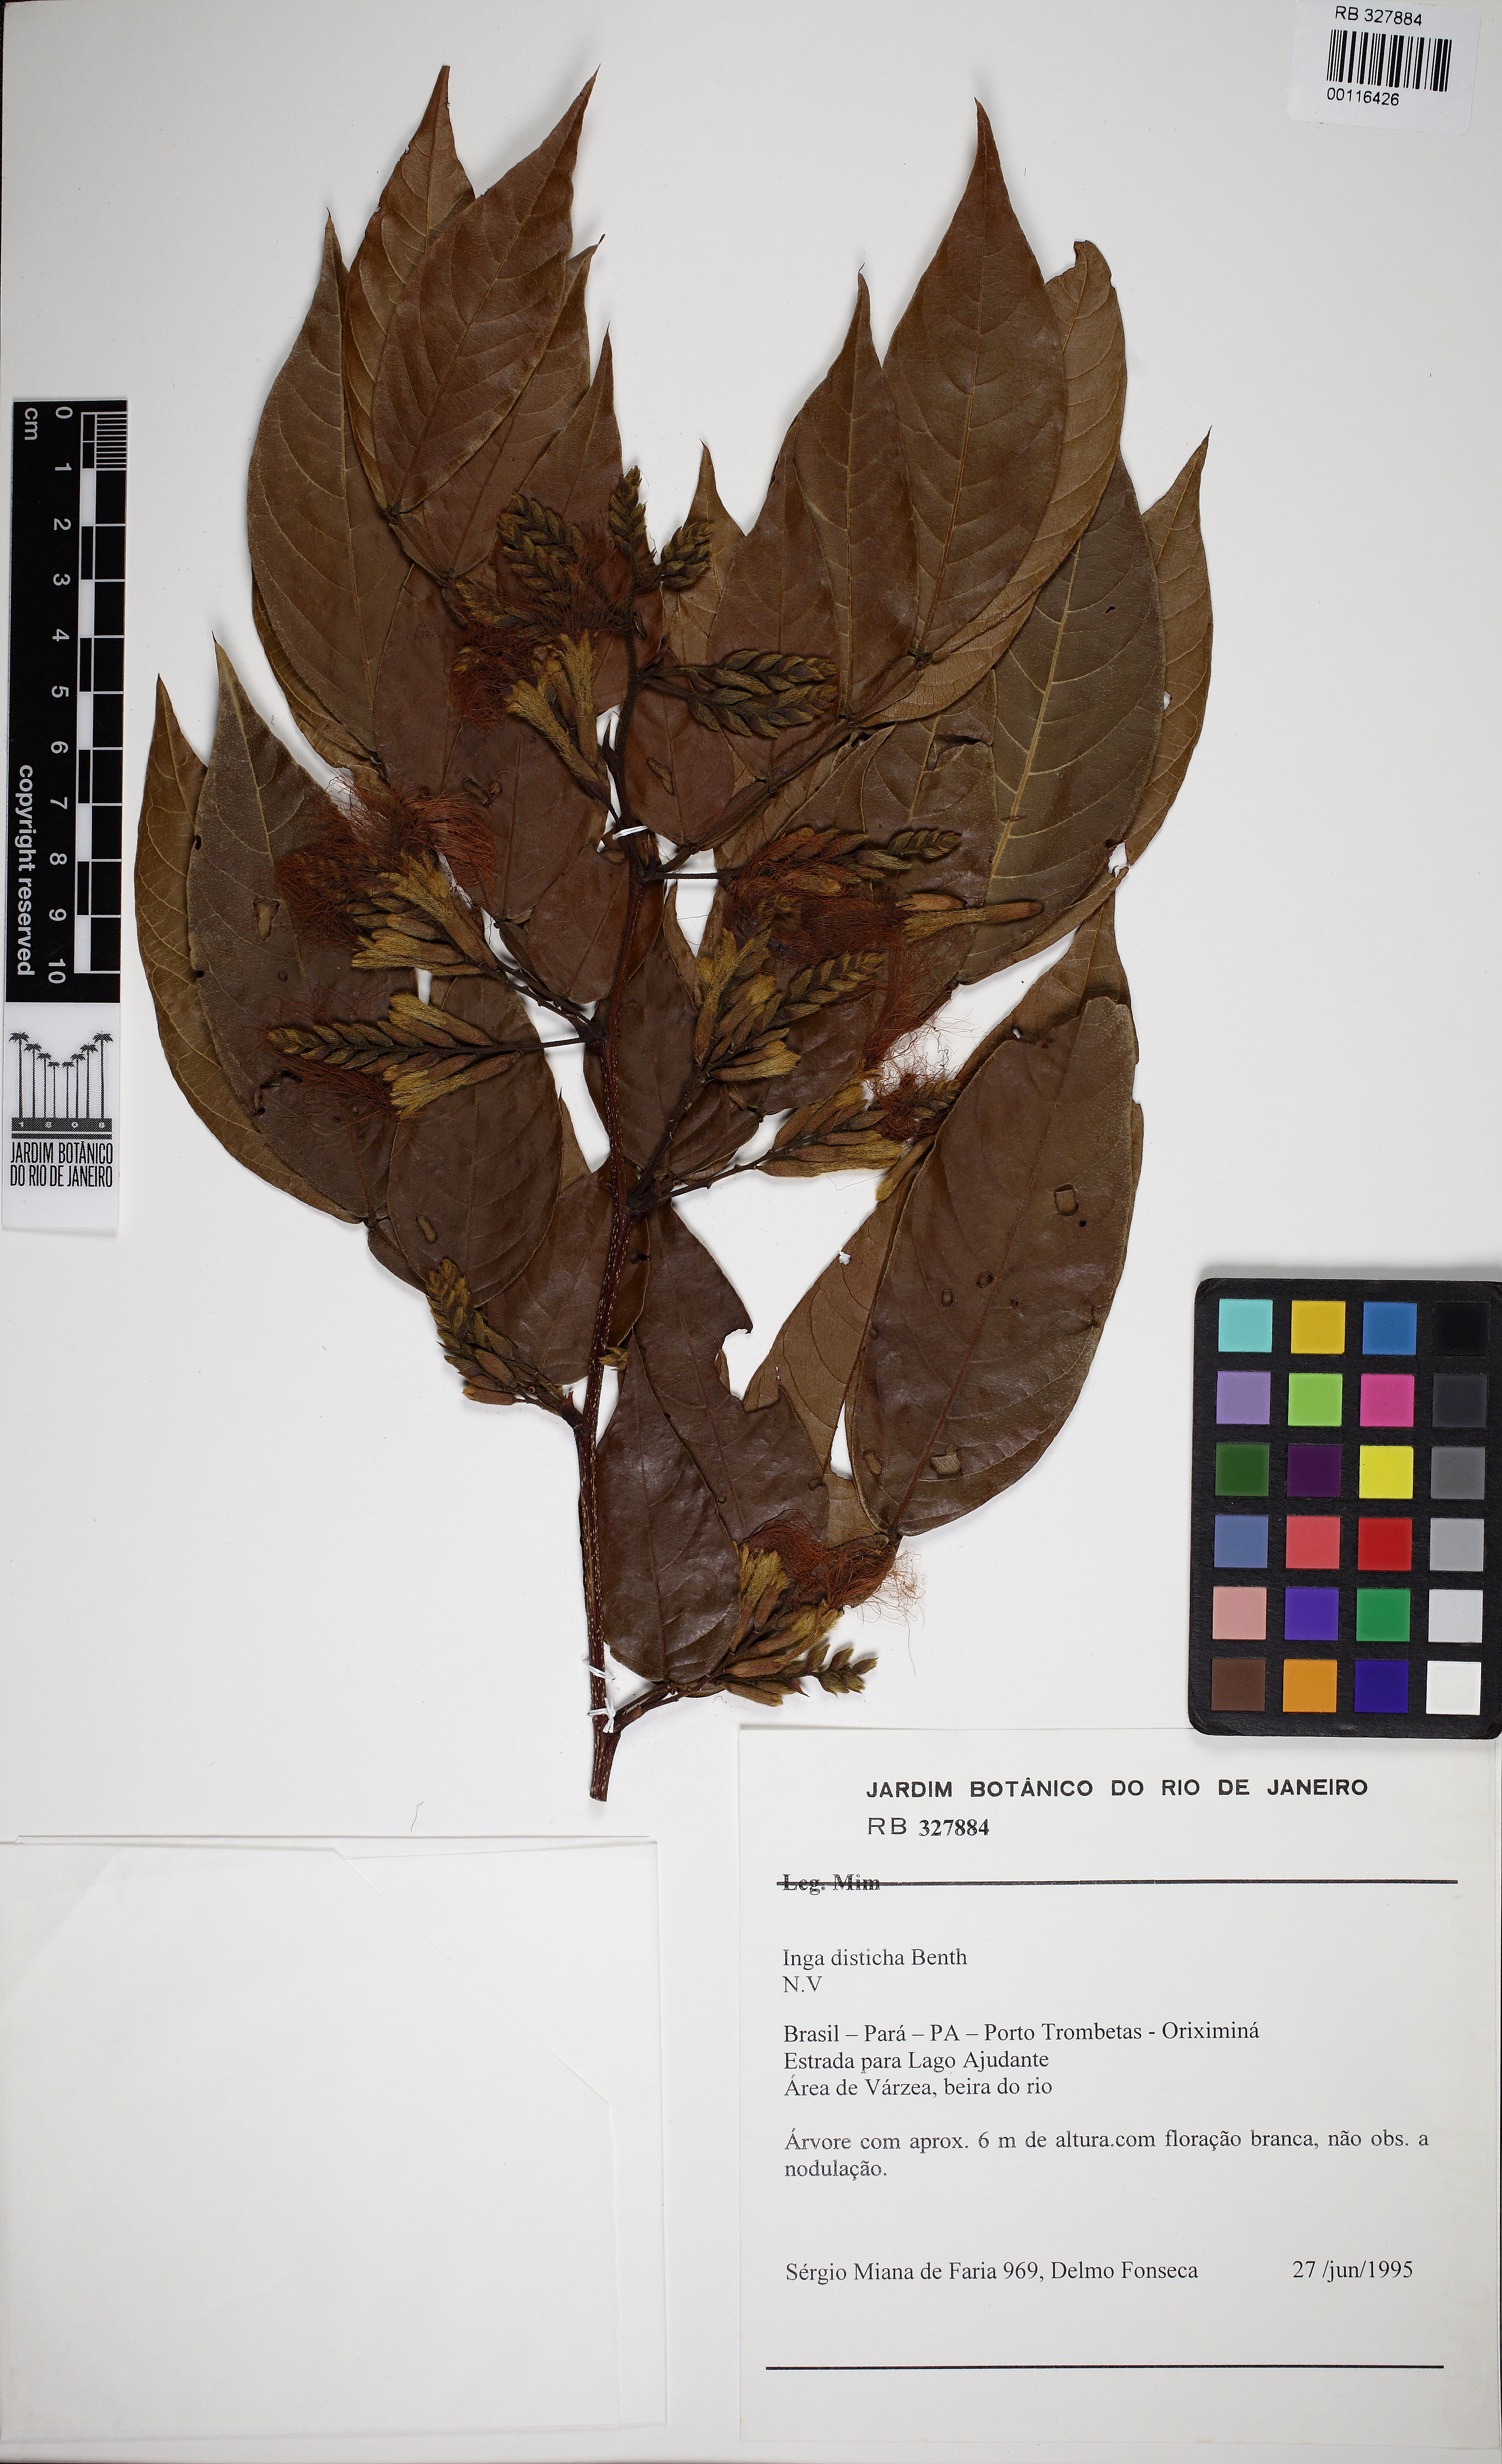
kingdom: Plantae
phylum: Tracheophyta
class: Magnoliopsida
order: Fabales
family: Fabaceae
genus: Inga
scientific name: Inga disticha
